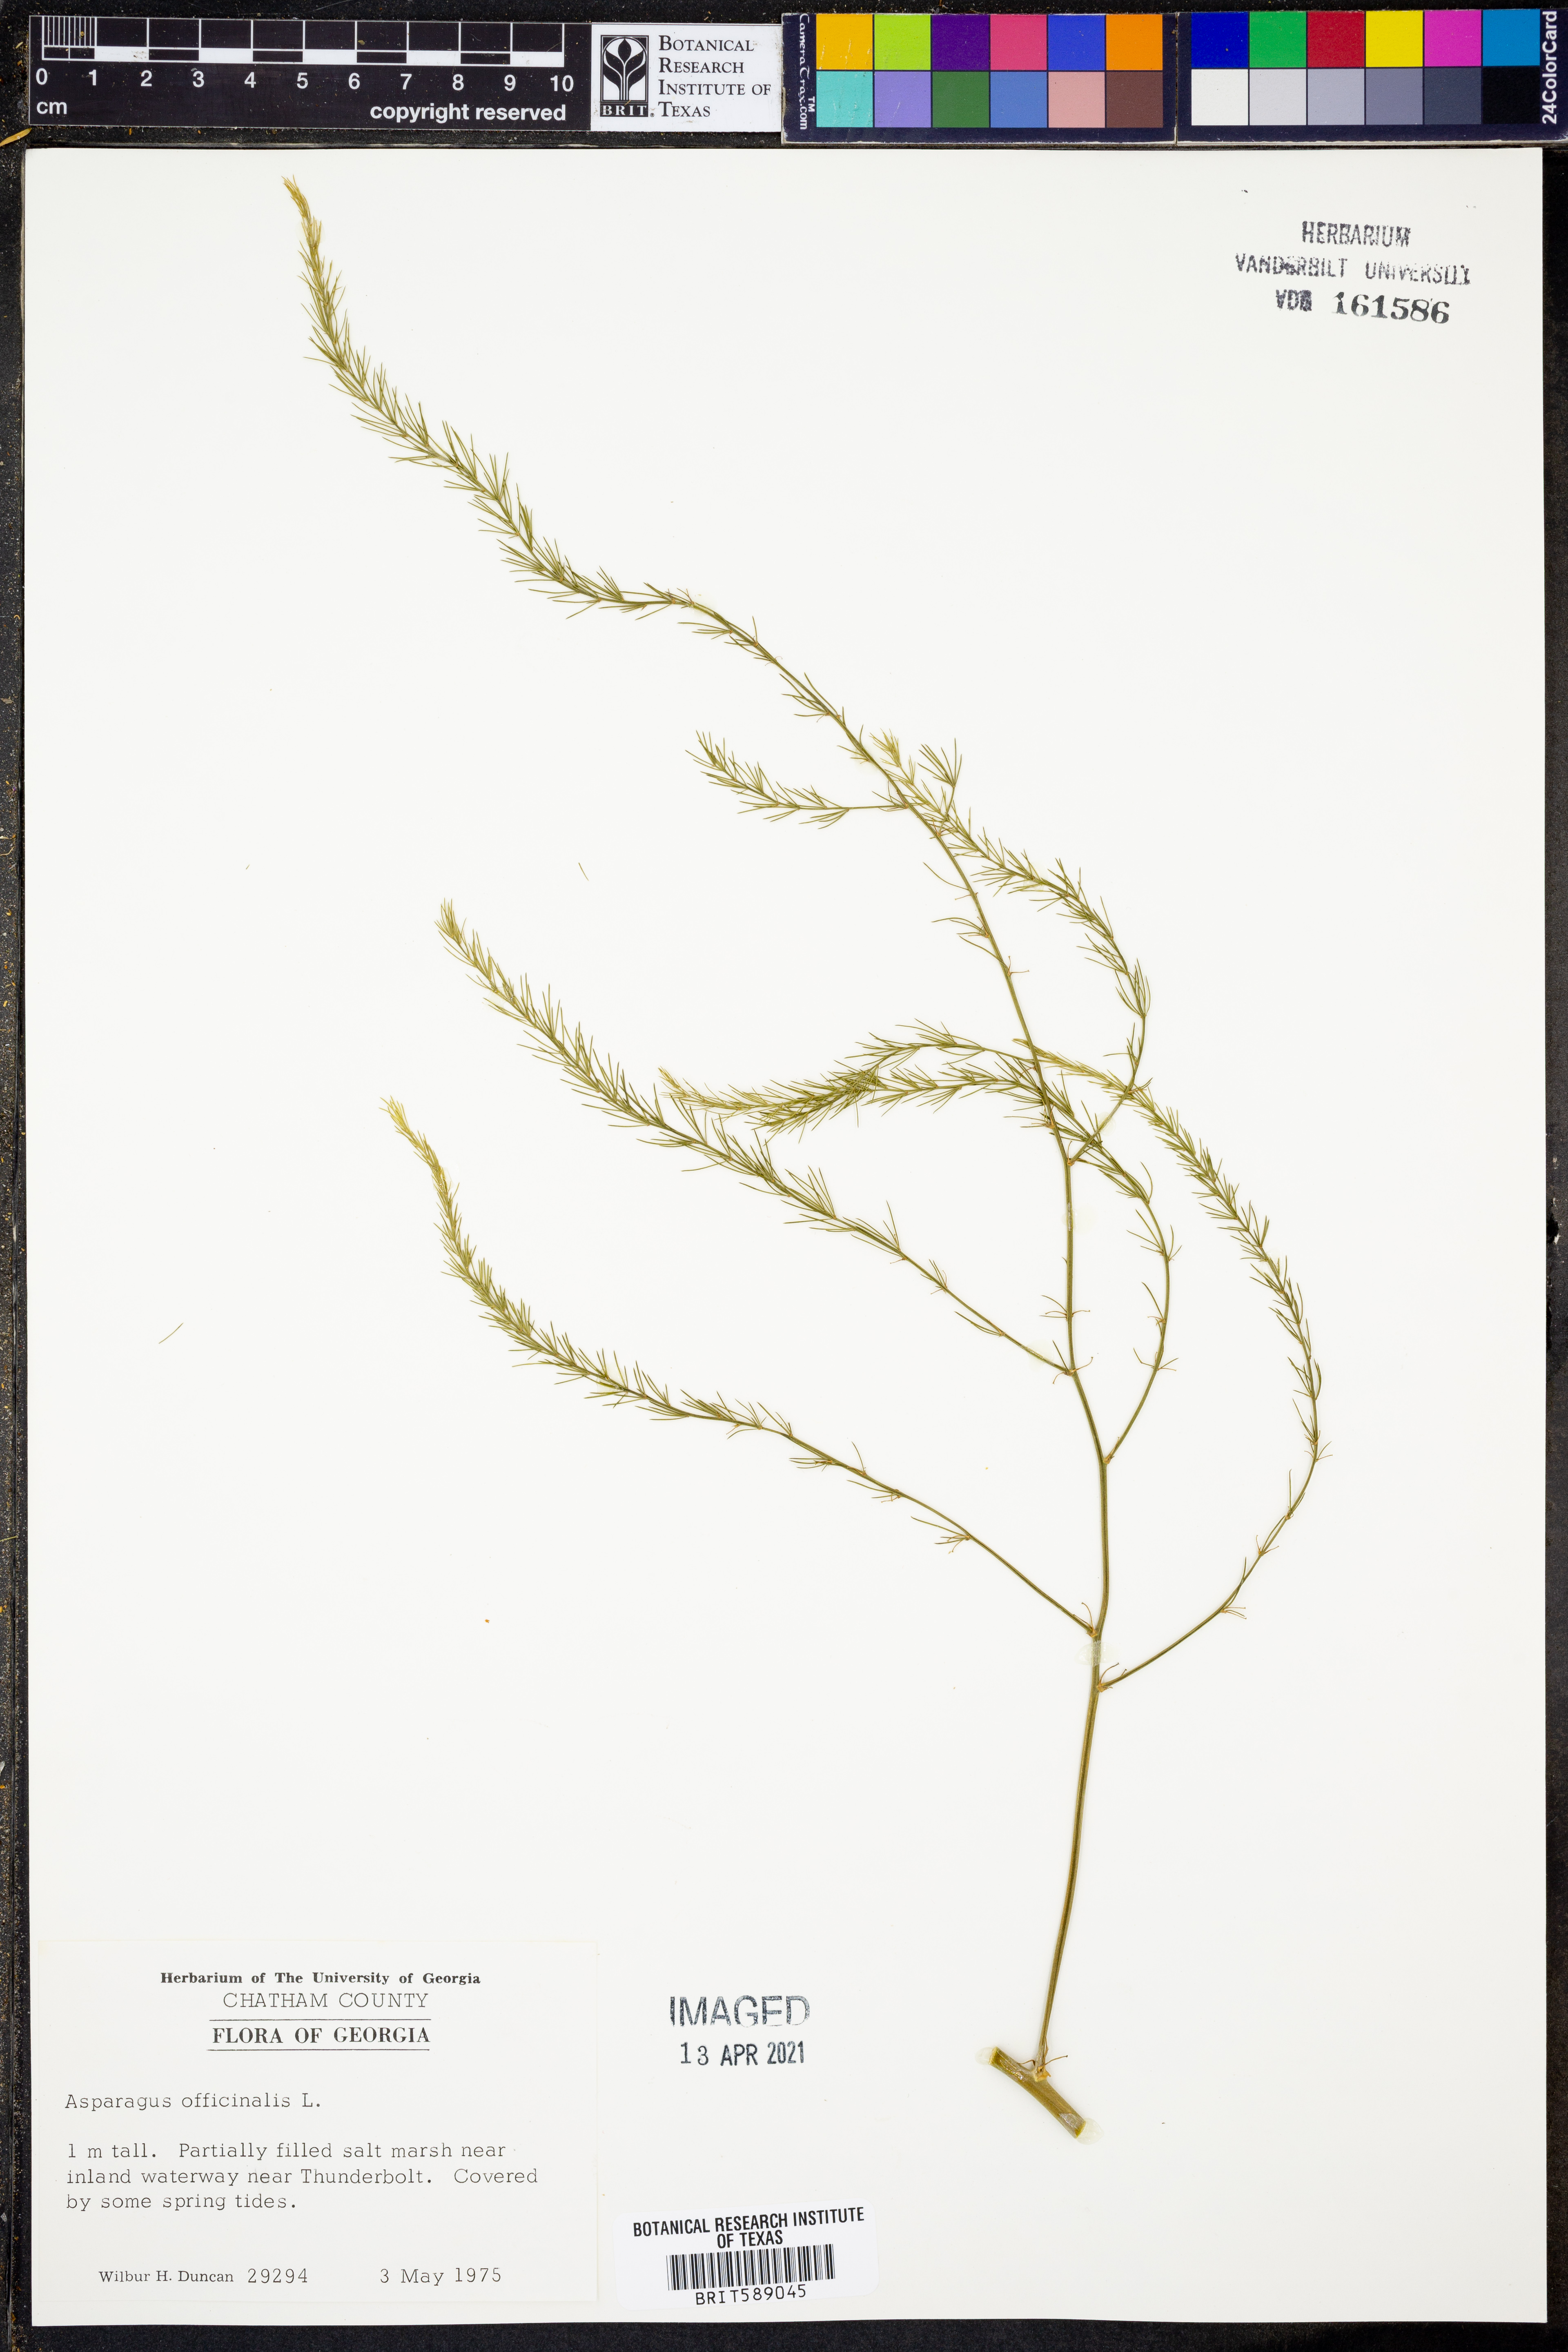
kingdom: Plantae
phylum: Tracheophyta
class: Liliopsida
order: Asparagales
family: Asparagaceae
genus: Asparagus
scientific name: Asparagus officinalis
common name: Garden asparagus
